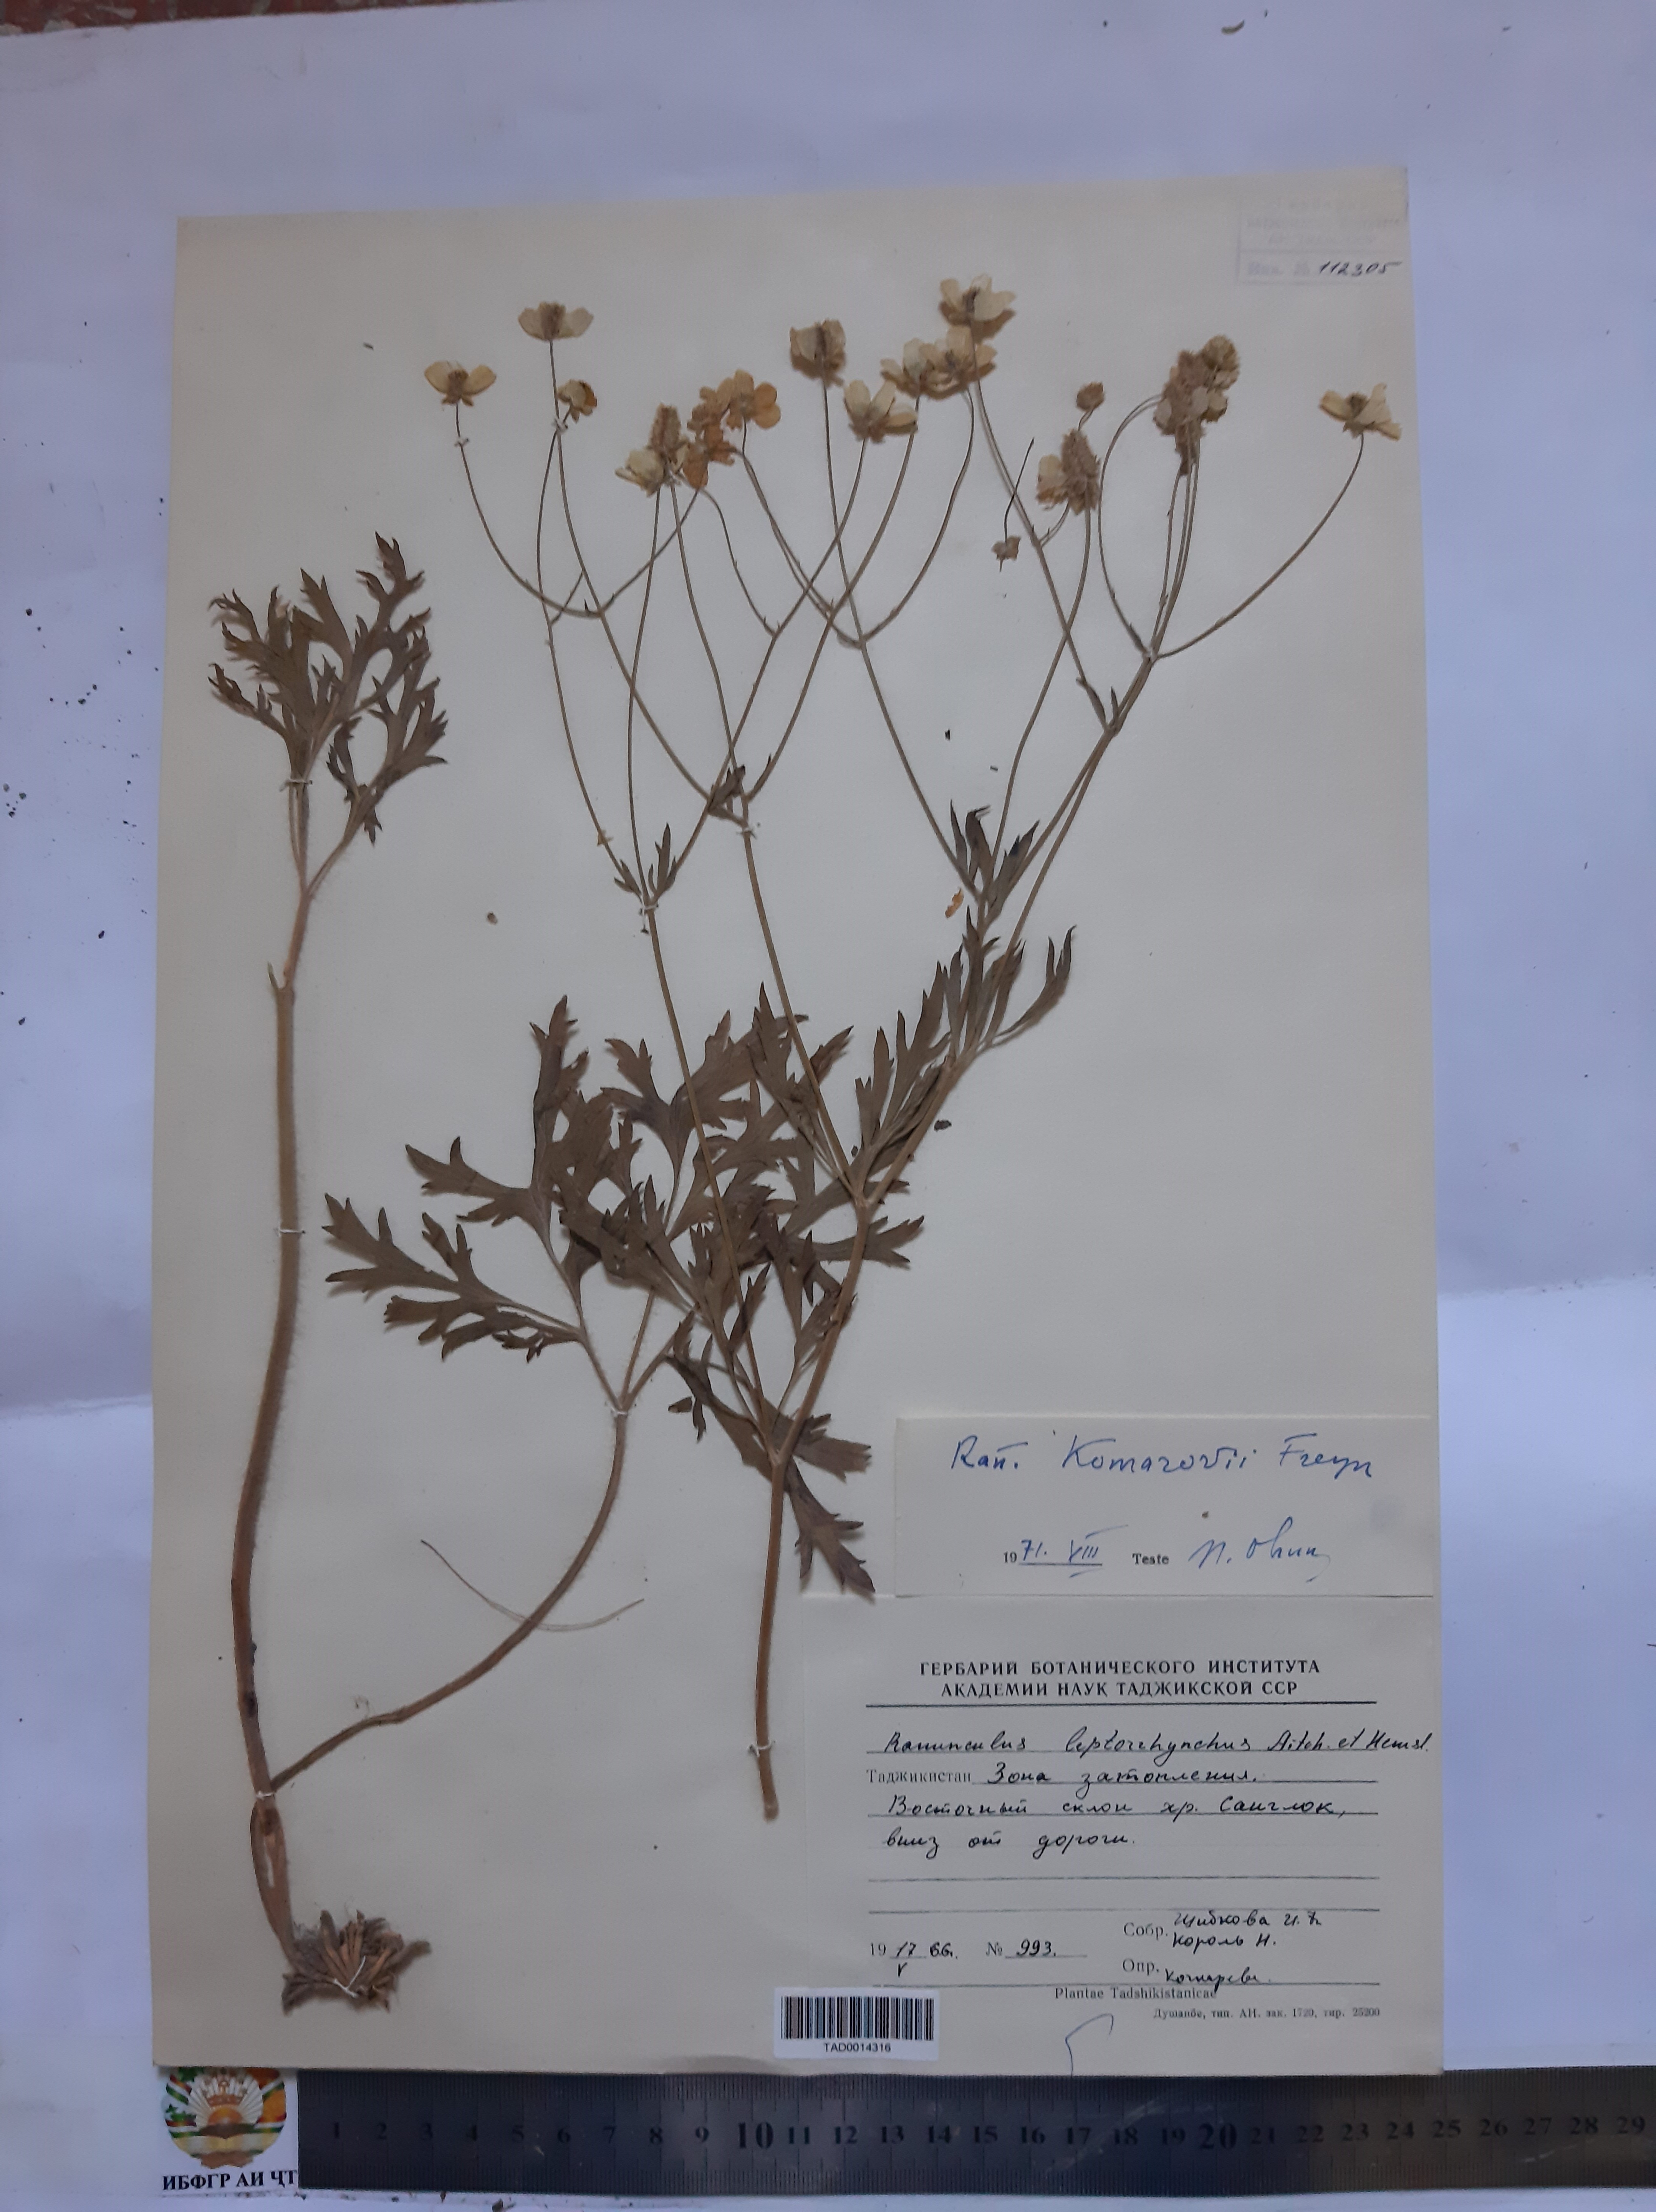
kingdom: Plantae
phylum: Tracheophyta
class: Magnoliopsida
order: Ranunculales
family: Ranunculaceae
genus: Ranunculus
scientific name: Ranunculus leptorrhynchus
